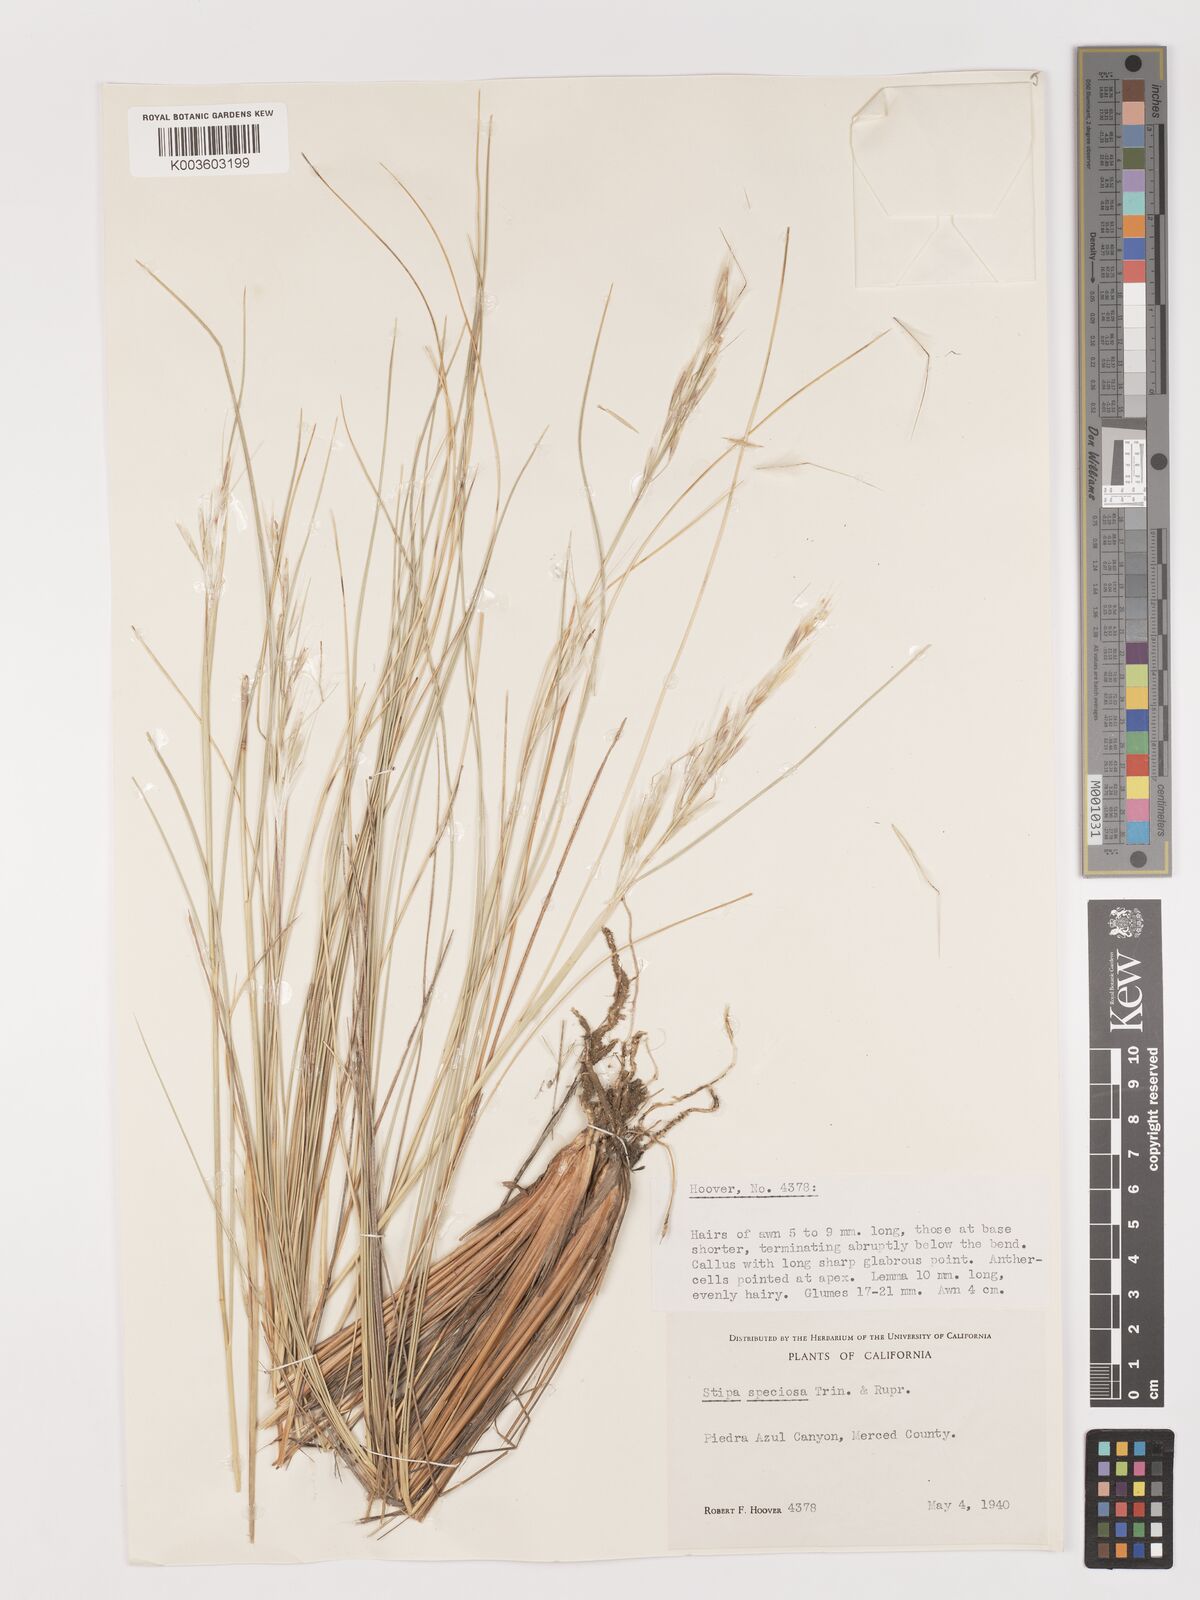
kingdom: Plantae
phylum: Tracheophyta
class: Liliopsida
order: Poales
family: Poaceae
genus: Pappostipa
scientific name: Pappostipa speciosa
